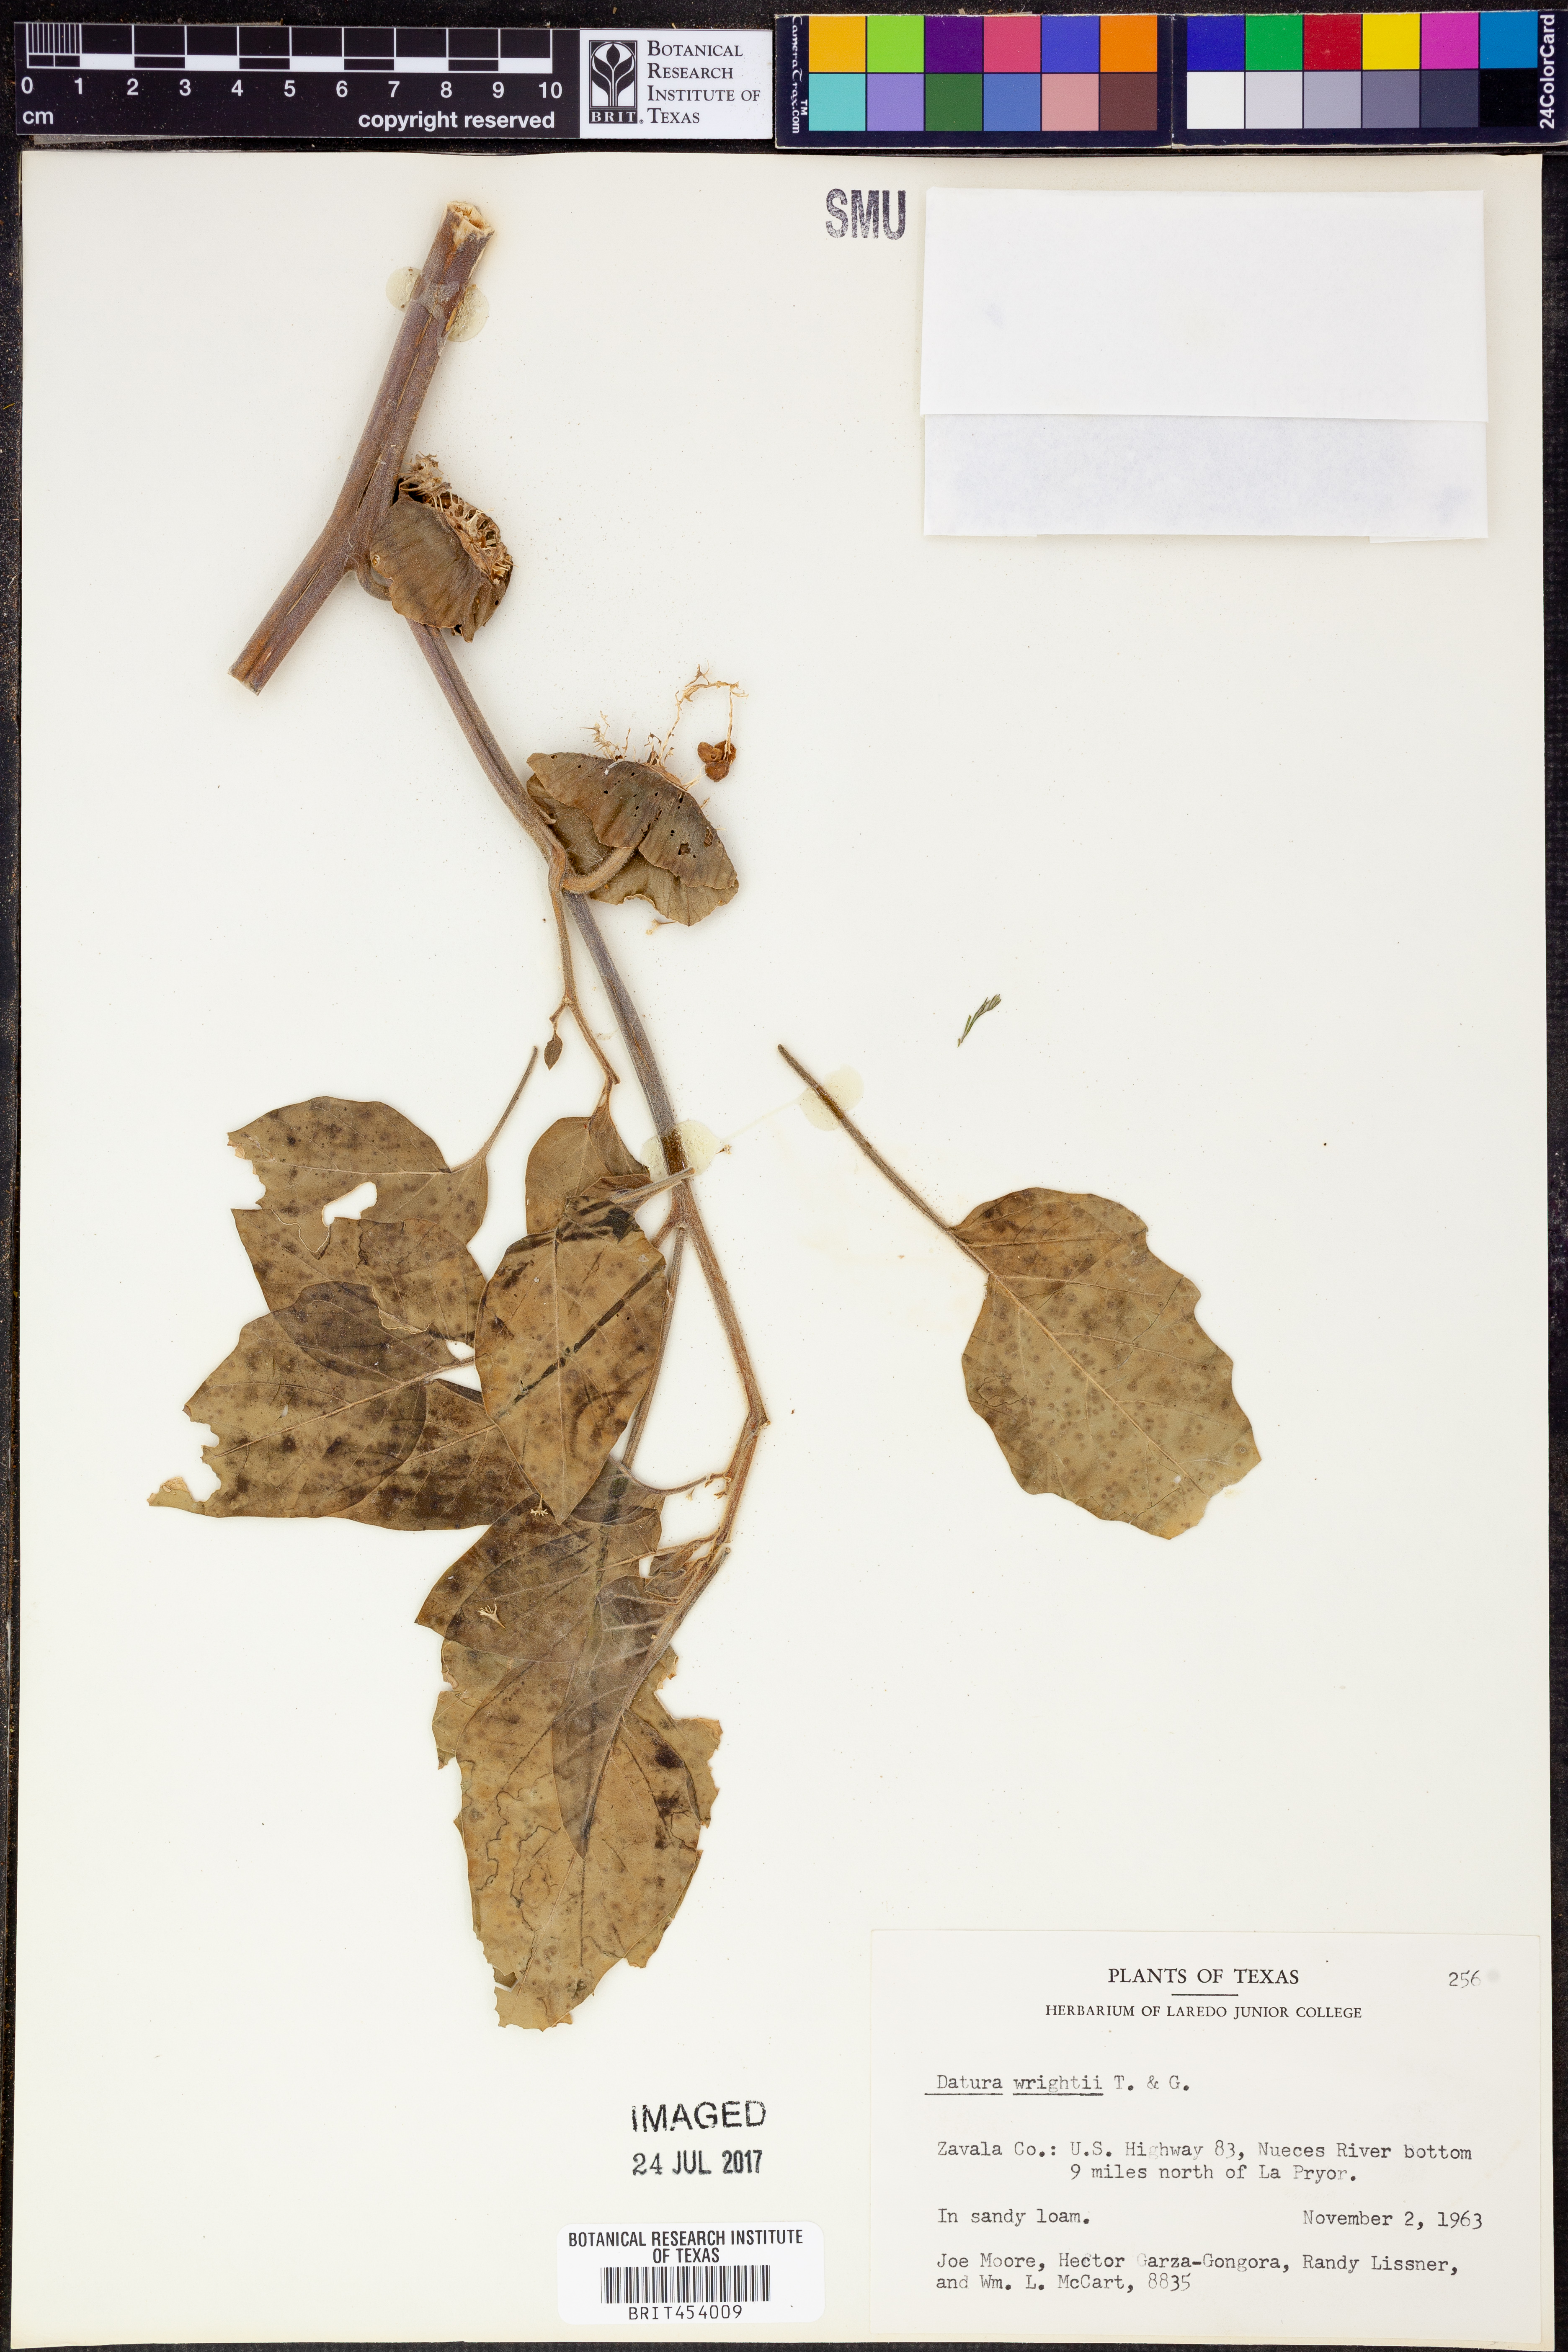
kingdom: Plantae
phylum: Tracheophyta
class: Magnoliopsida
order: Solanales
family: Solanaceae
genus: Datura
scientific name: Datura wrightii
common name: Sacred thorn-apple
